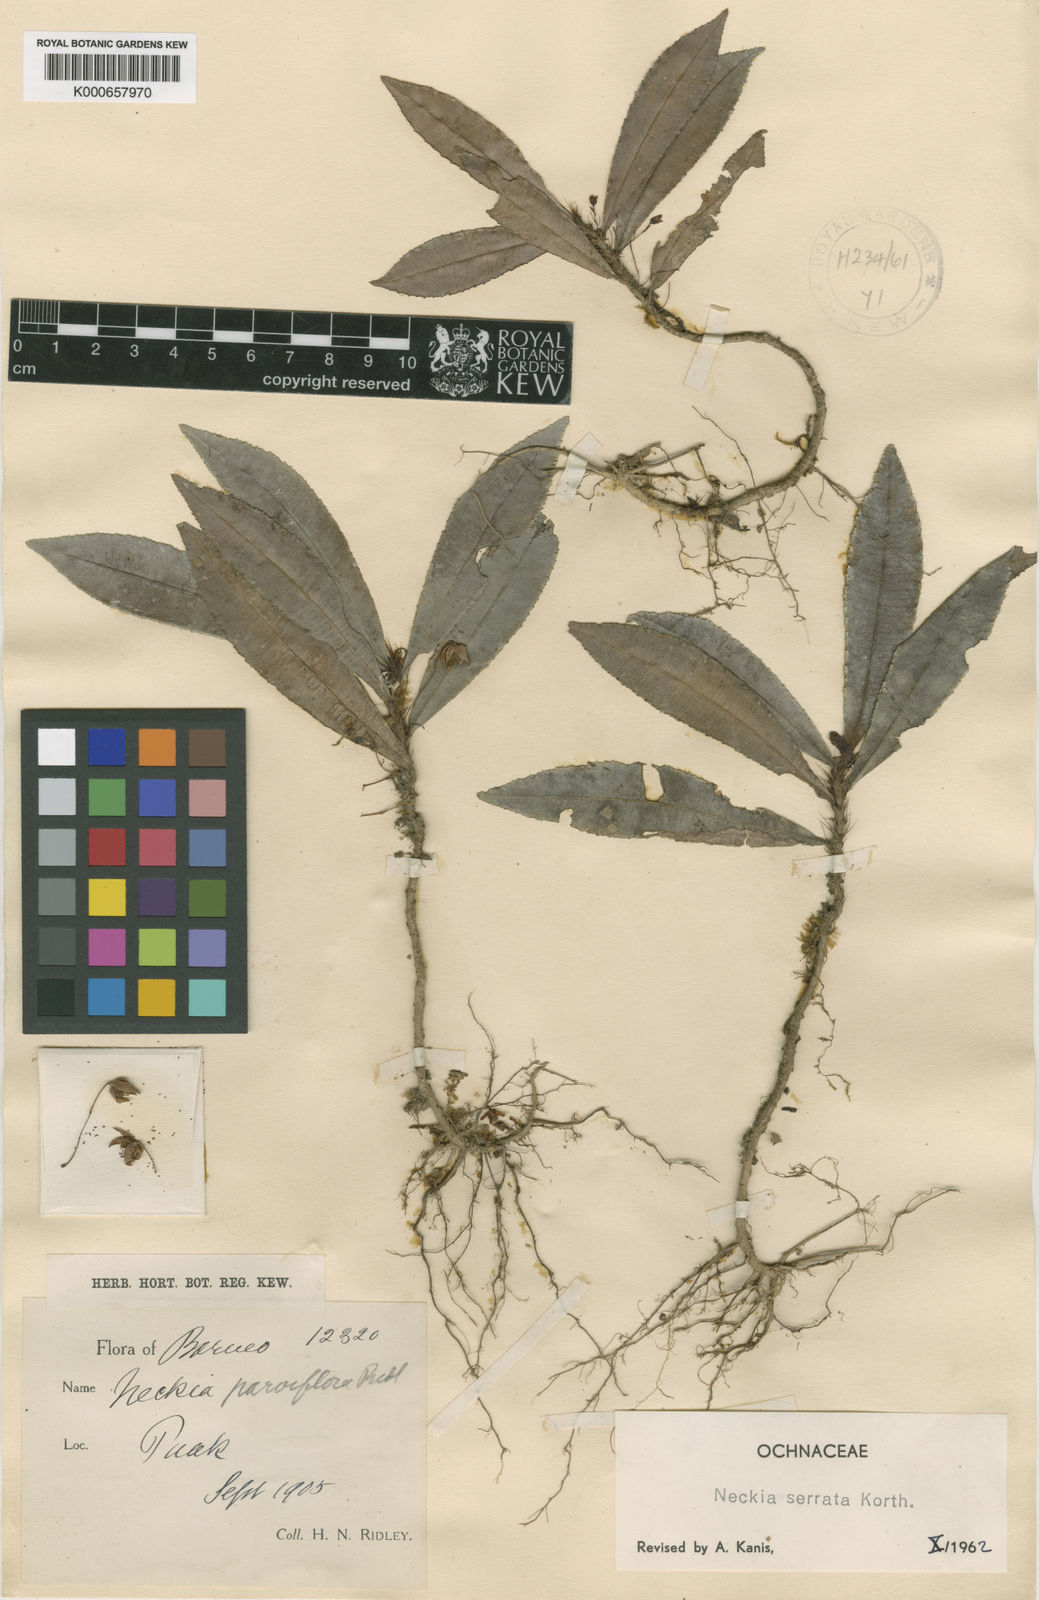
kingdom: Plantae
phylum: Tracheophyta
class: Magnoliopsida
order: Malpighiales
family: Ochnaceae
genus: Neckia
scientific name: Neckia serrata
